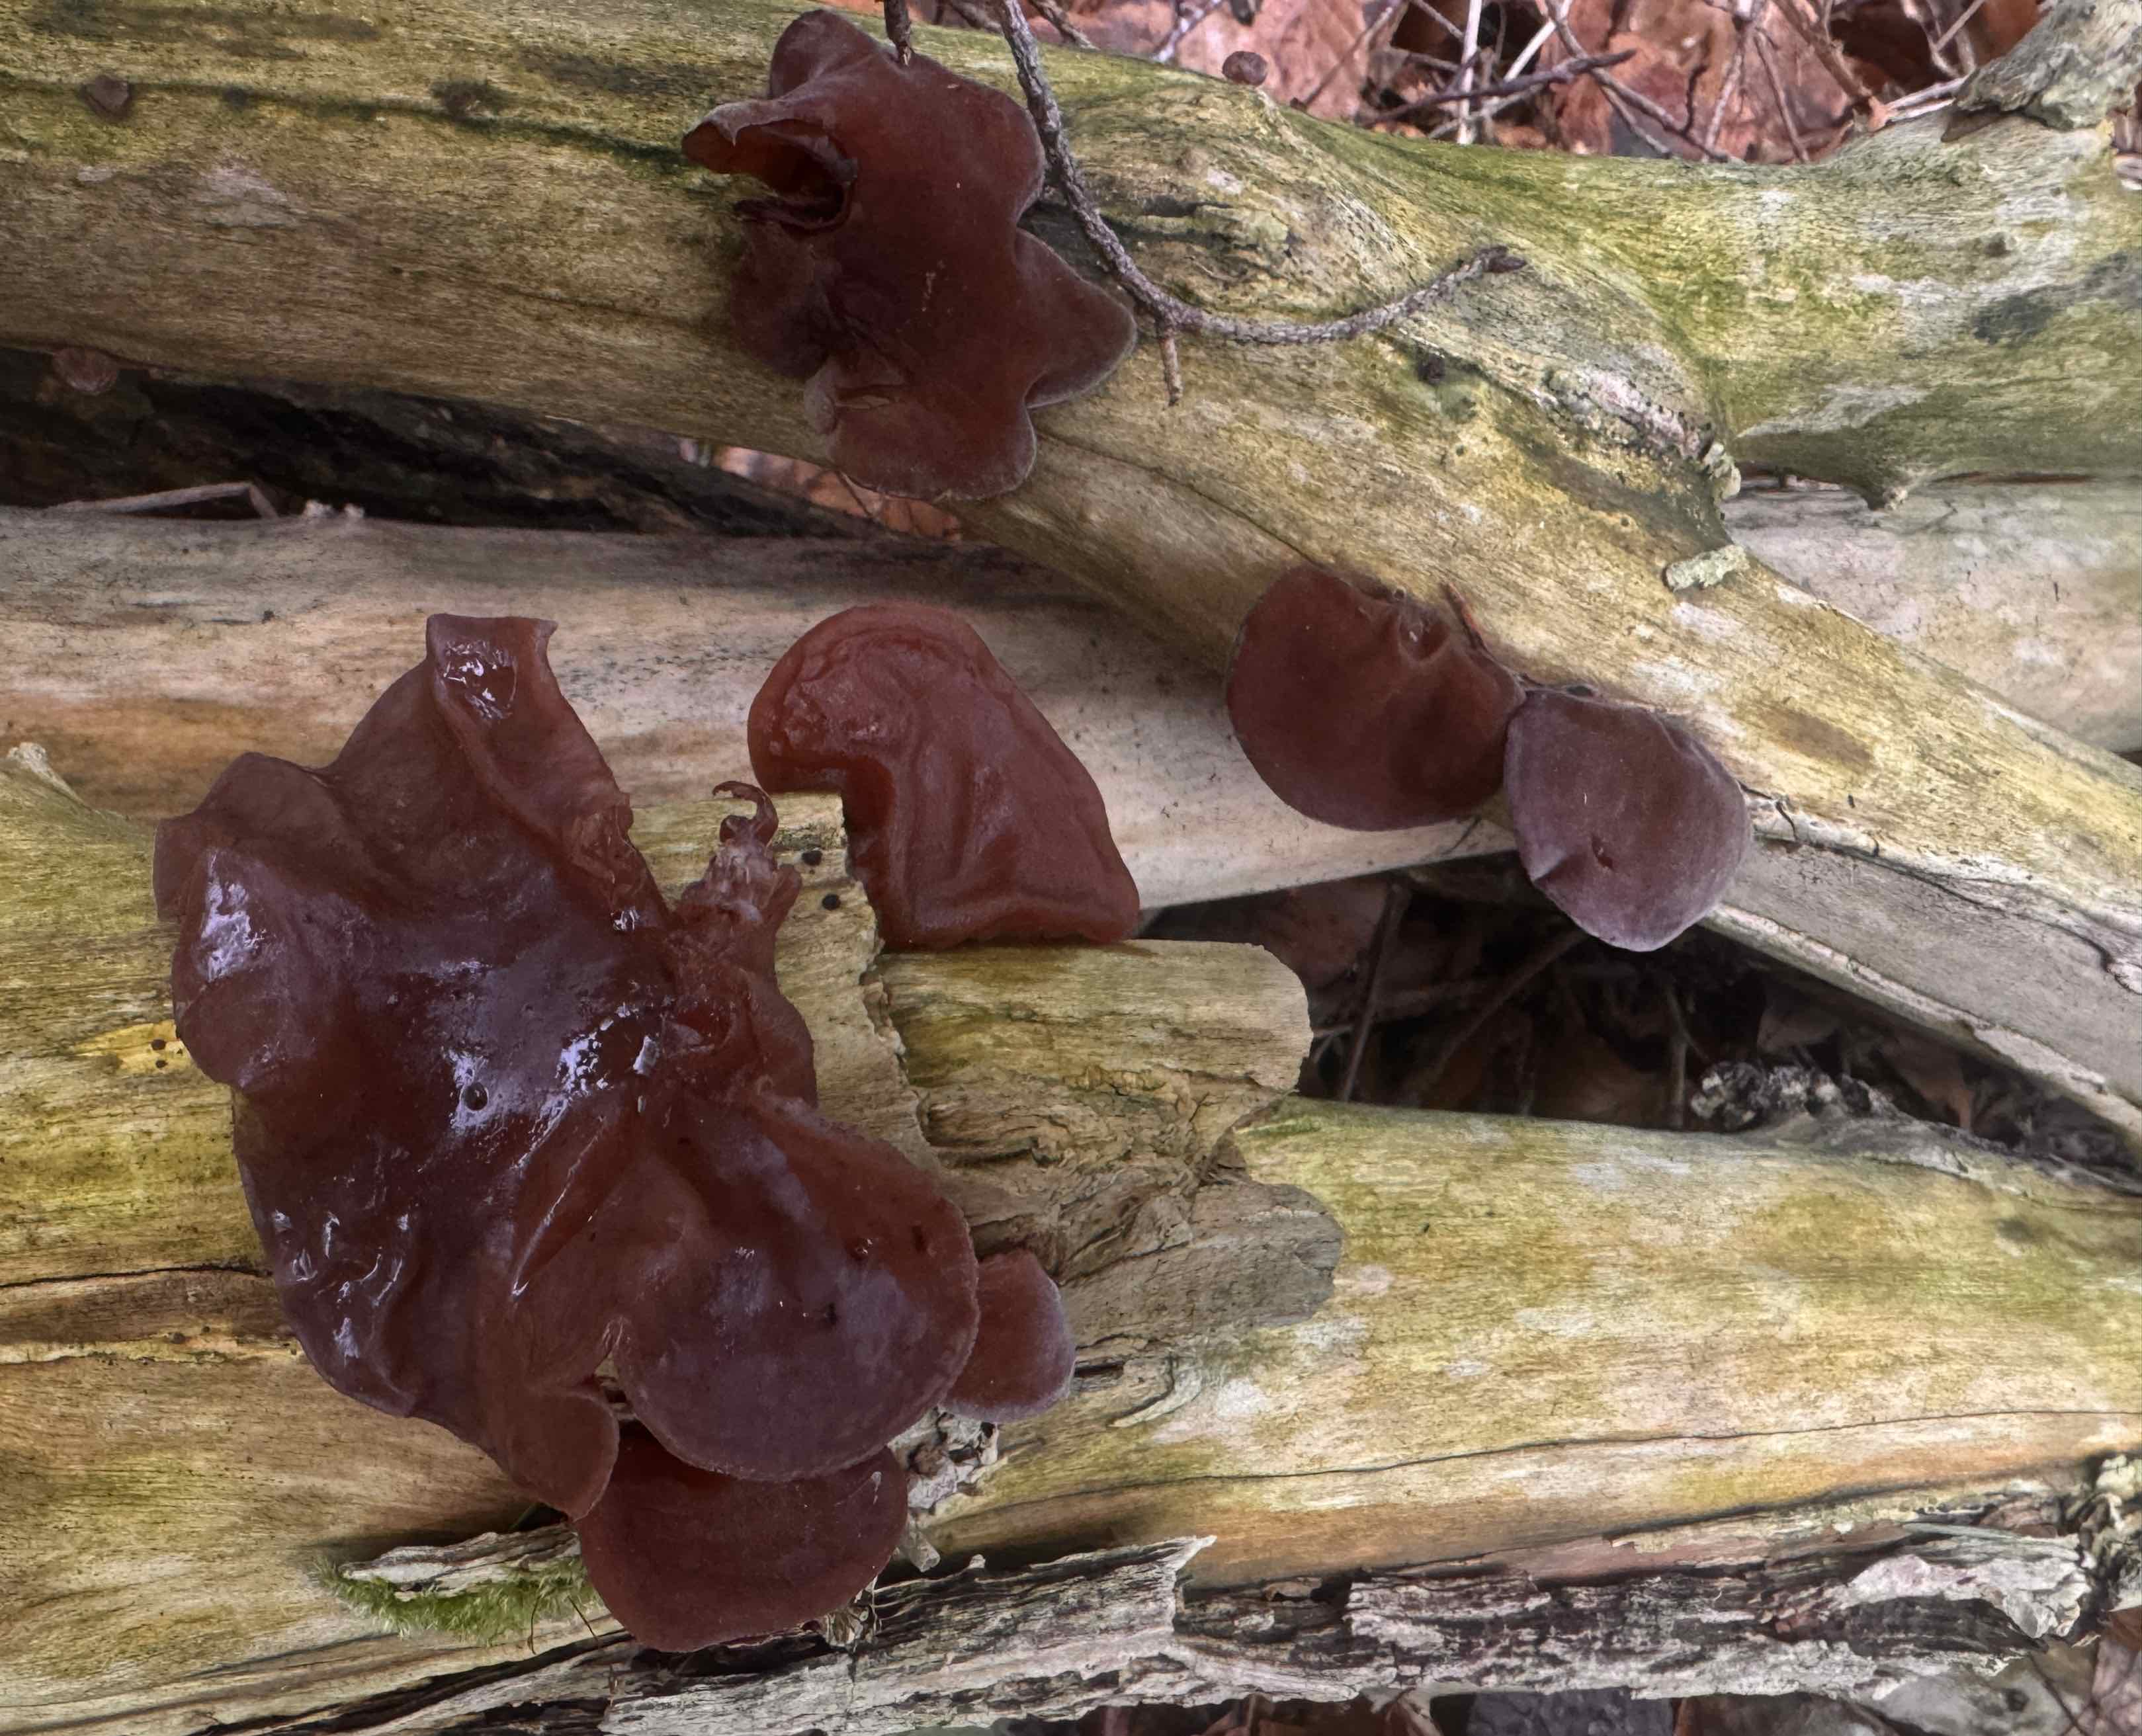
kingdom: Fungi
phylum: Basidiomycota
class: Agaricomycetes
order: Auriculariales
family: Auriculariaceae
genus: Auricularia
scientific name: Auricularia auricula-judae
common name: almindelig judasøre
